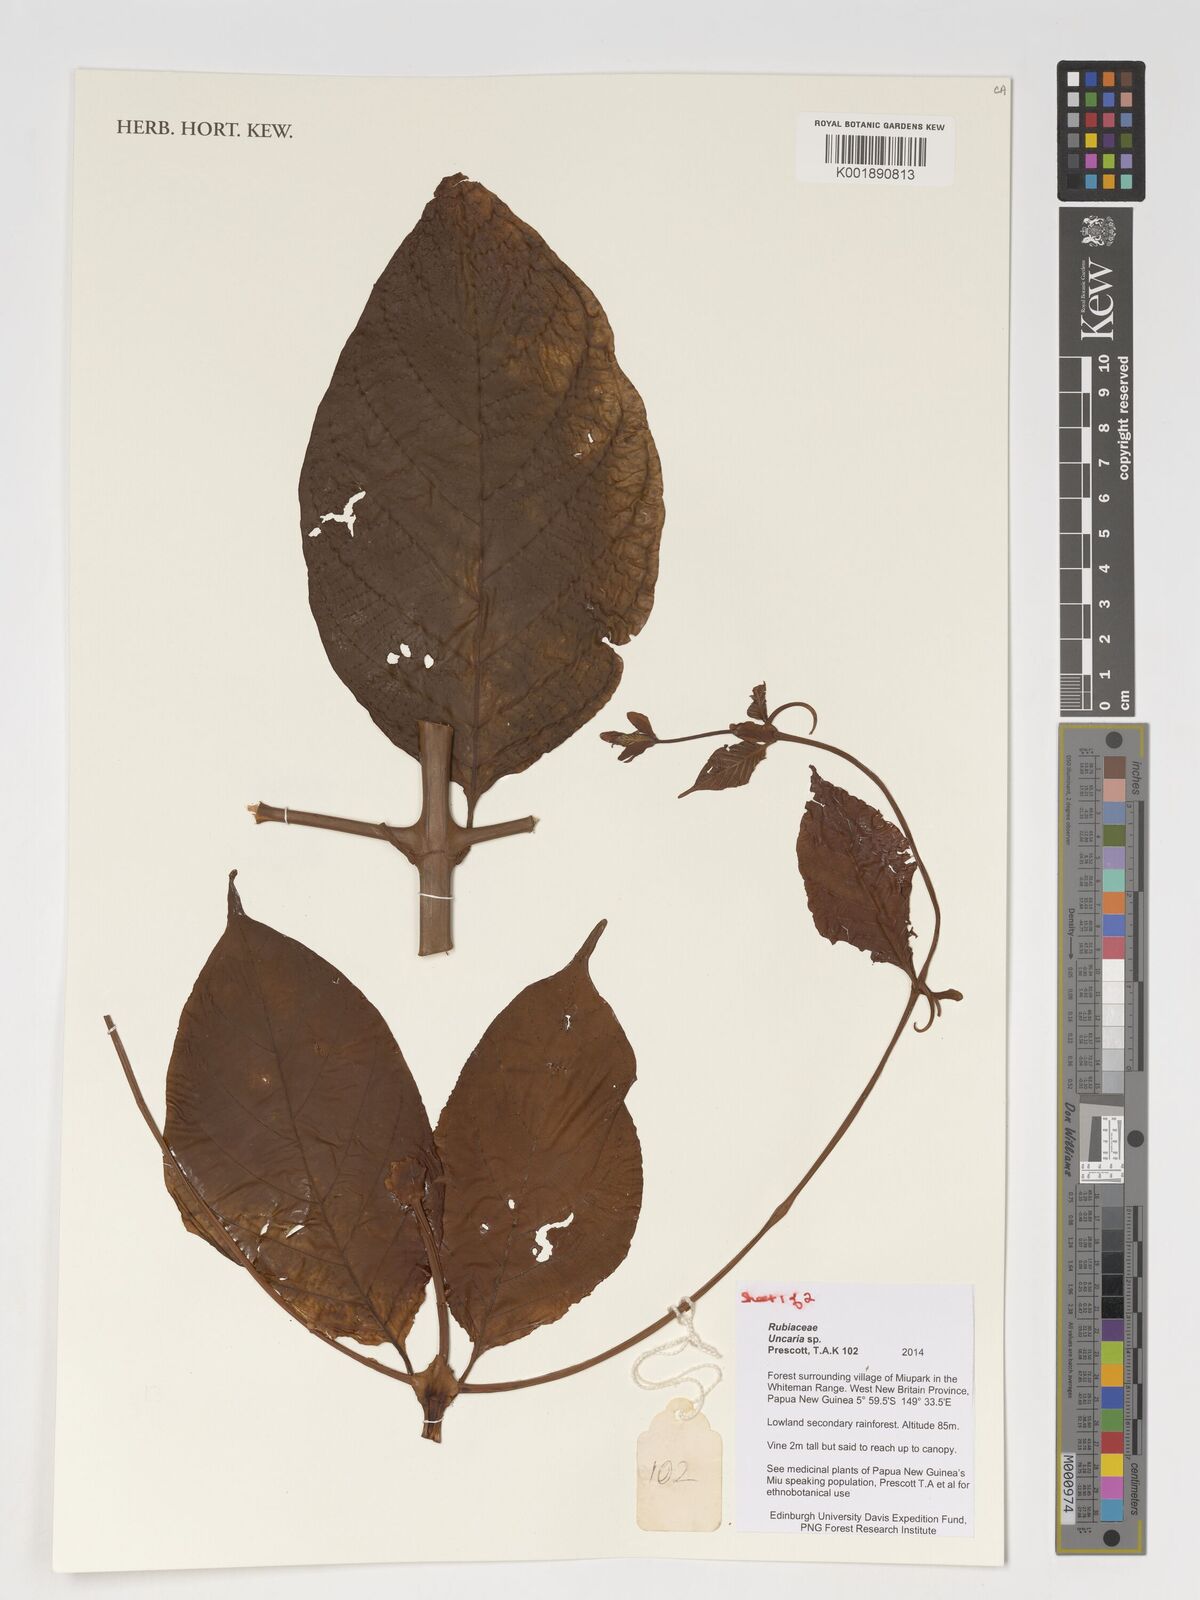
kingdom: Plantae
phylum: Tracheophyta
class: Magnoliopsida
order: Gentianales
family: Rubiaceae
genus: Uncaria
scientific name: Uncaria
